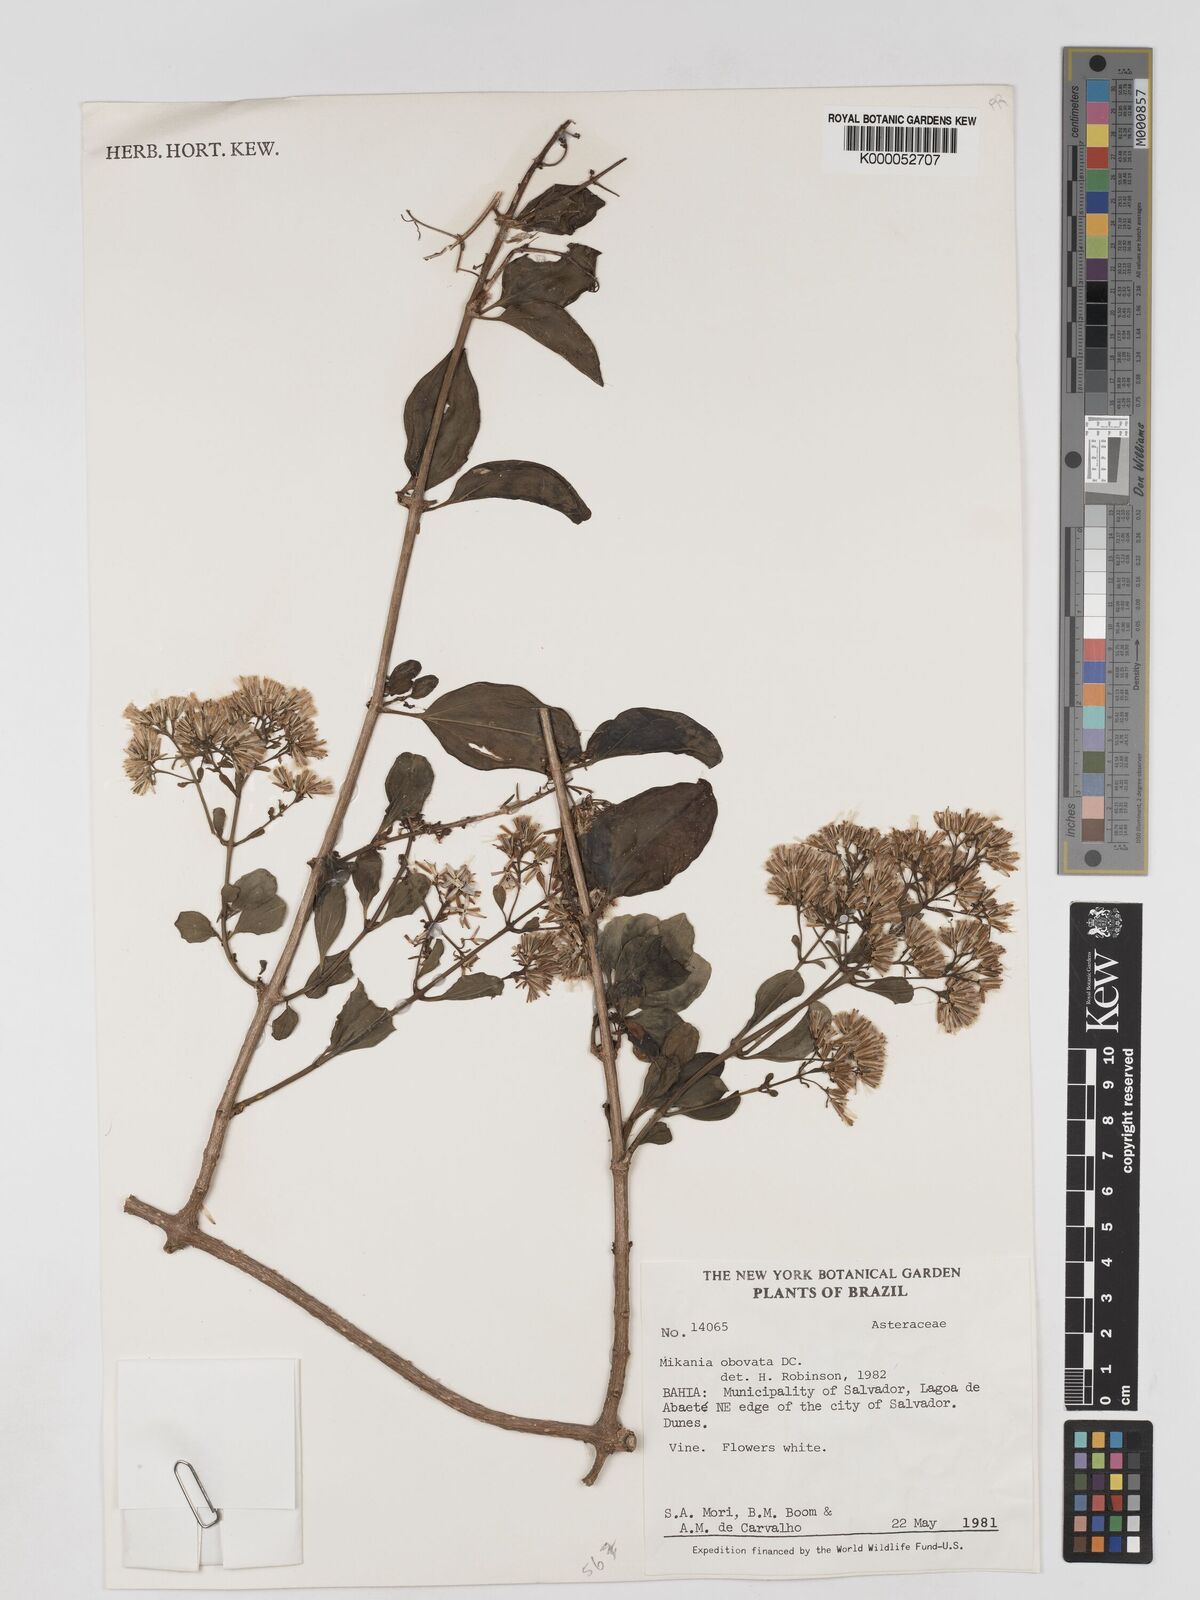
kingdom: Plantae
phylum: Tracheophyta
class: Magnoliopsida
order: Asterales
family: Asteraceae
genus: Mikania
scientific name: Mikania obovata
